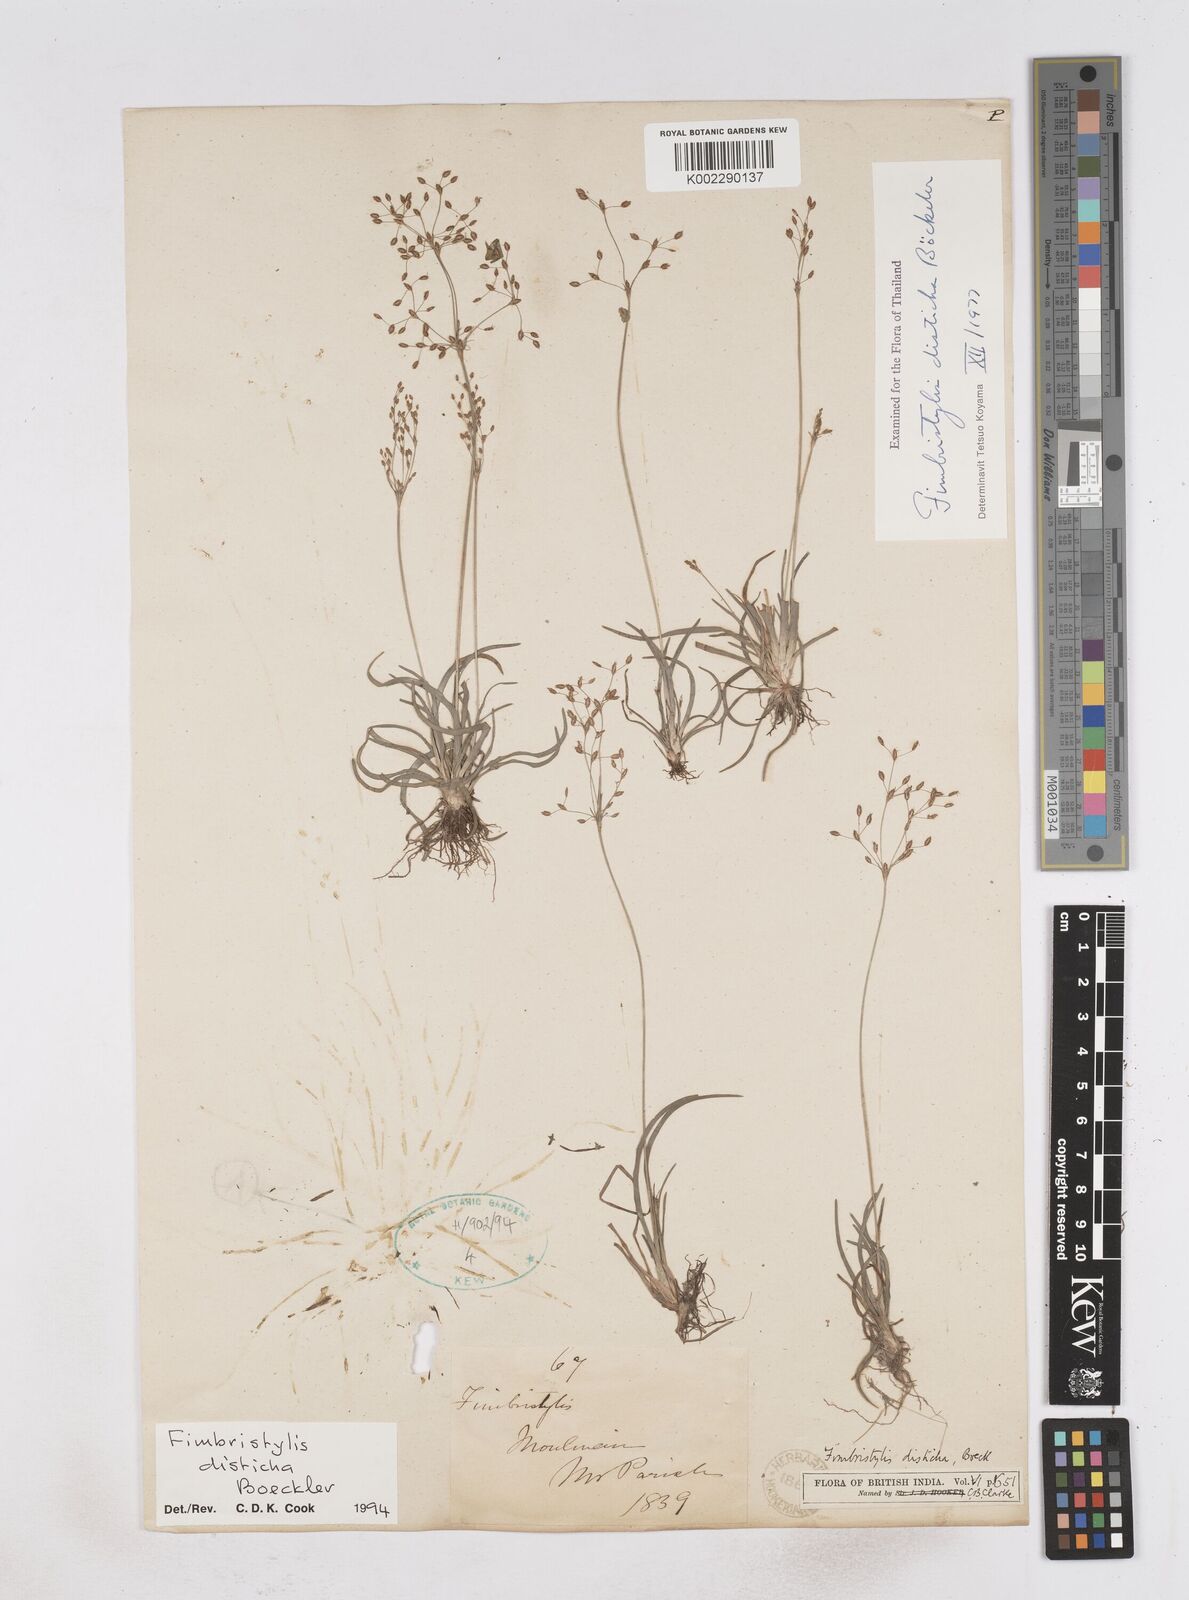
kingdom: Plantae
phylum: Tracheophyta
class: Liliopsida
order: Poales
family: Cyperaceae
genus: Fimbristylis
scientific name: Fimbristylis disticha
